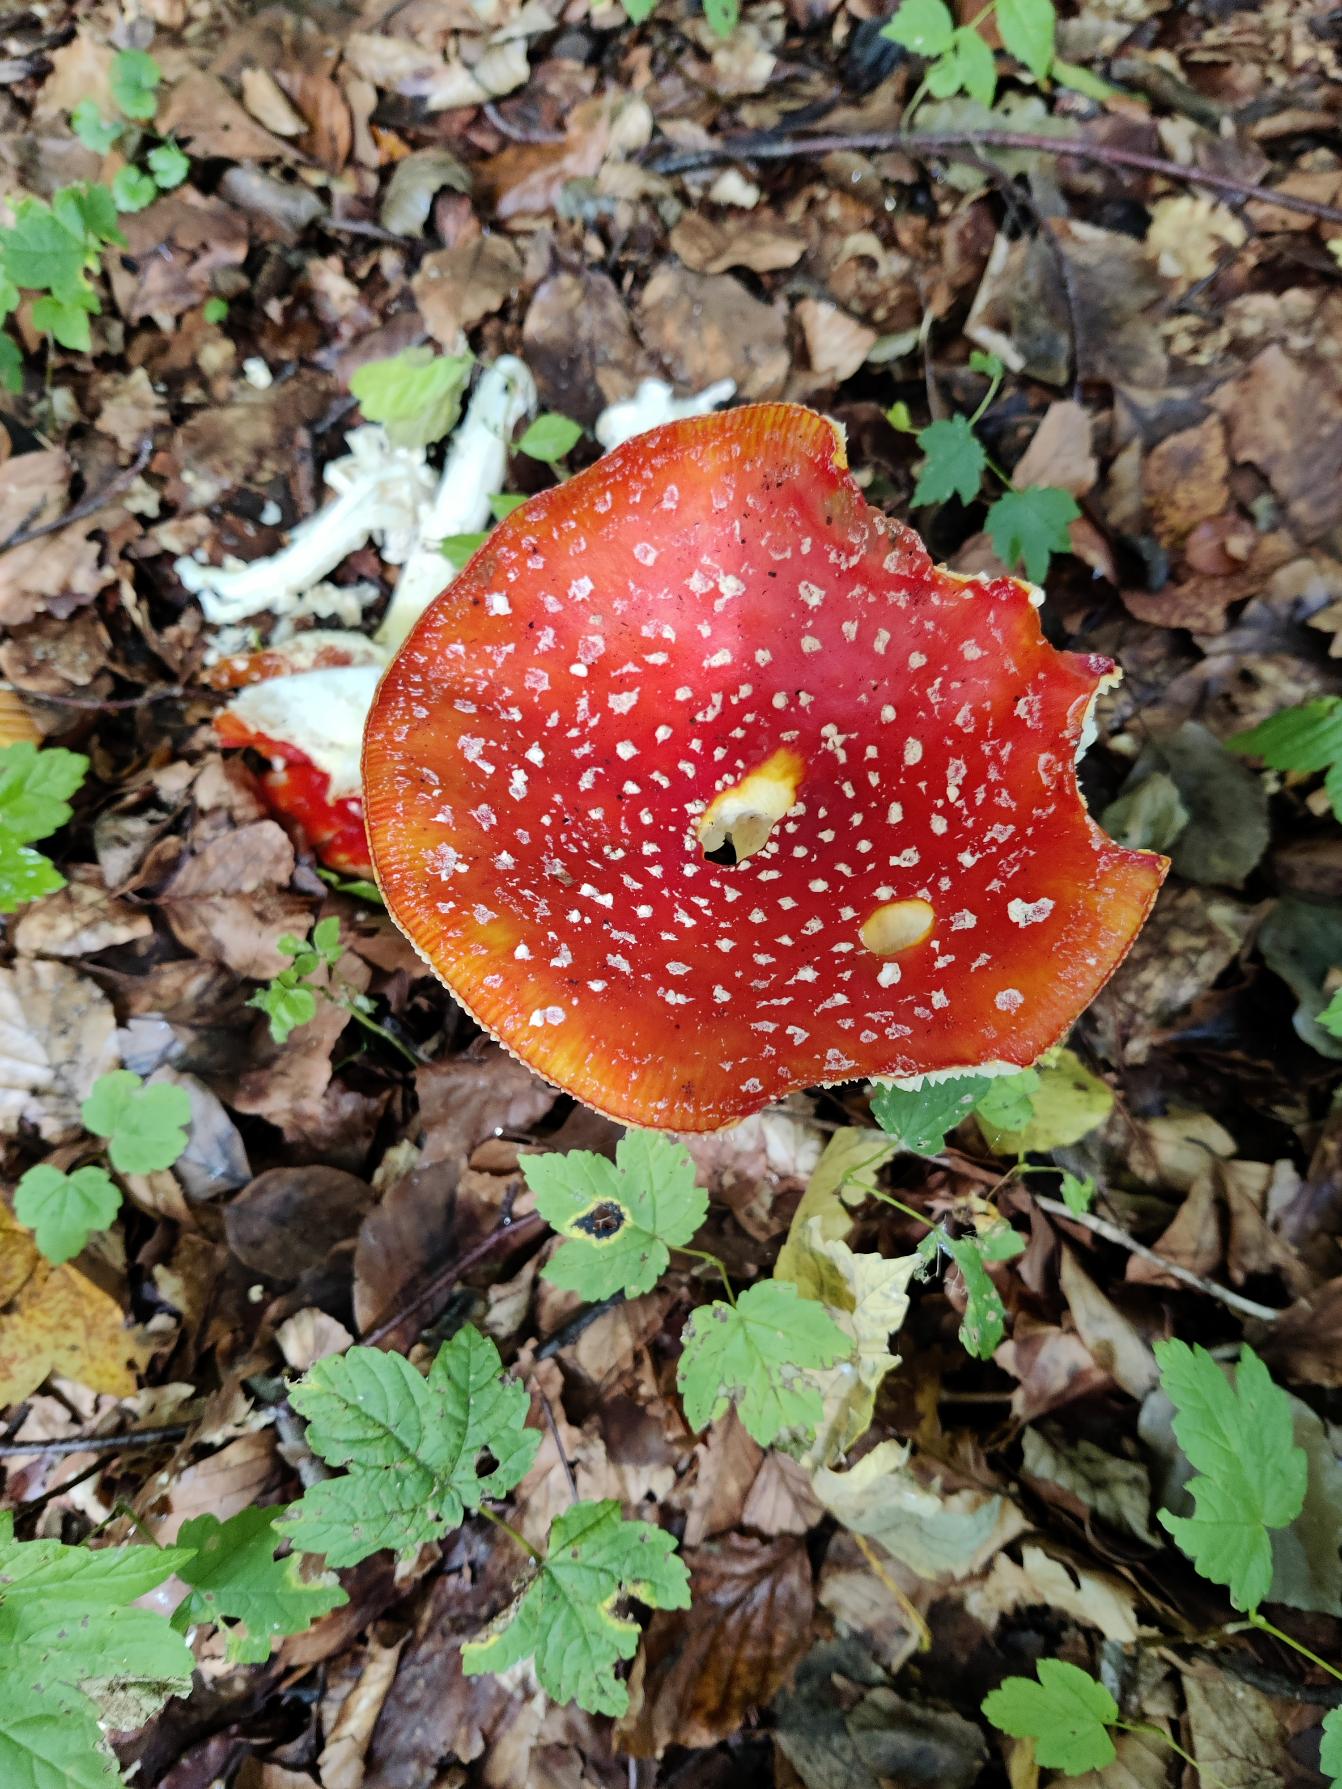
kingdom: Fungi
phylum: Basidiomycota
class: Agaricomycetes
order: Agaricales
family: Amanitaceae
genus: Amanita
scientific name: Amanita muscaria
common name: Rød fluesvamp
